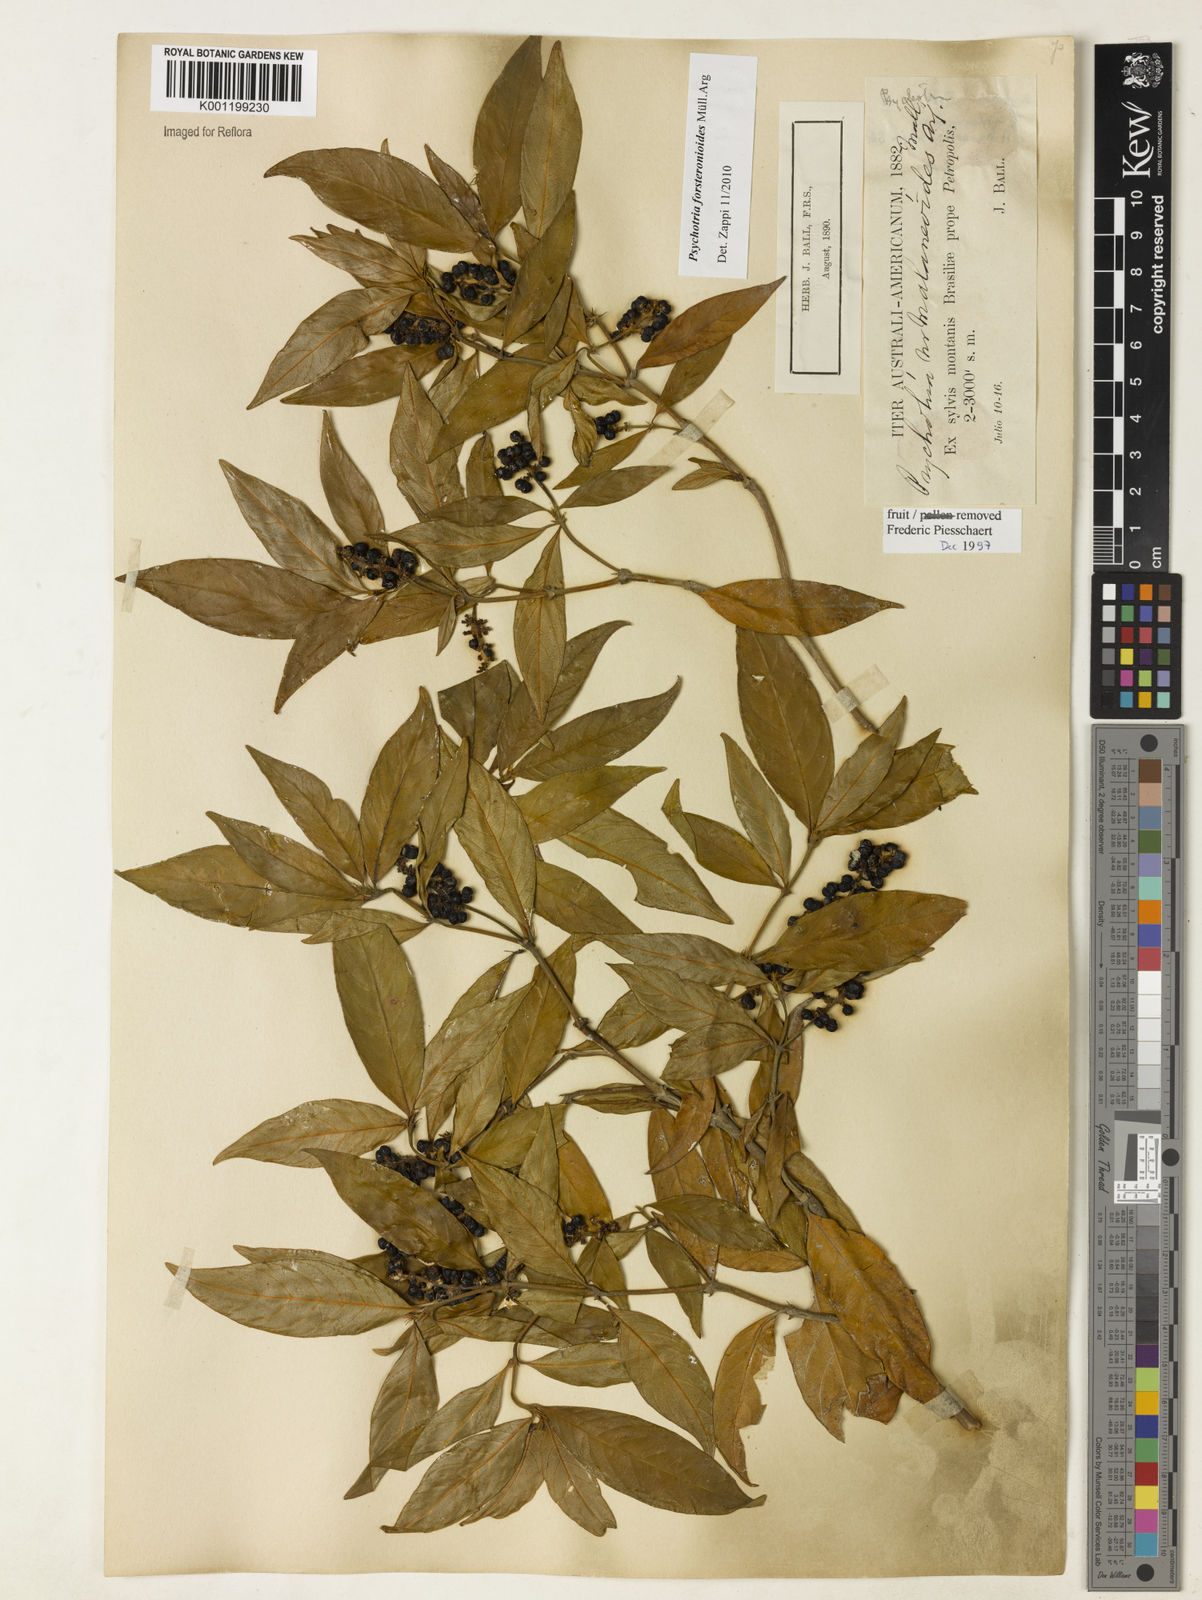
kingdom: Plantae
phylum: Tracheophyta
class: Magnoliopsida
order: Gentianales
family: Rubiaceae
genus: Psychotria
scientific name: Psychotria
